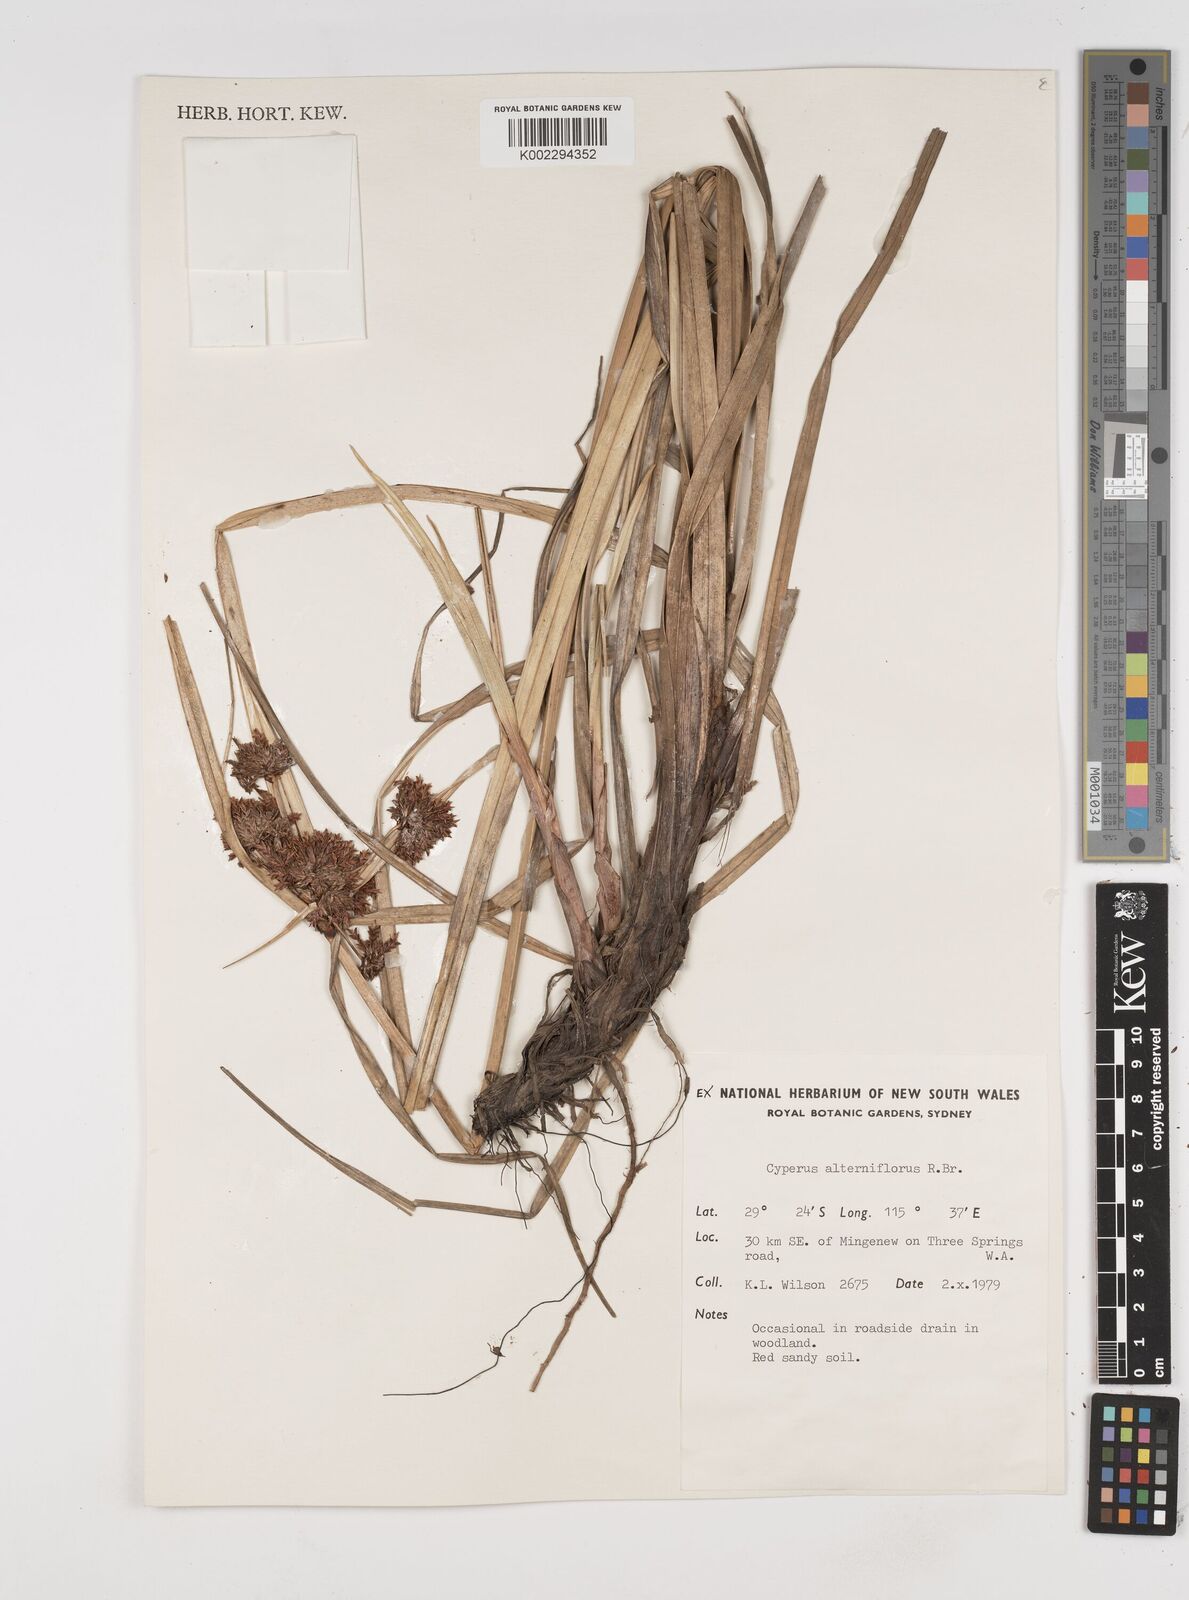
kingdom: Plantae
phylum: Tracheophyta
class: Liliopsida
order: Poales
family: Cyperaceae
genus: Cyperus
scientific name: Cyperus alterniflorus
